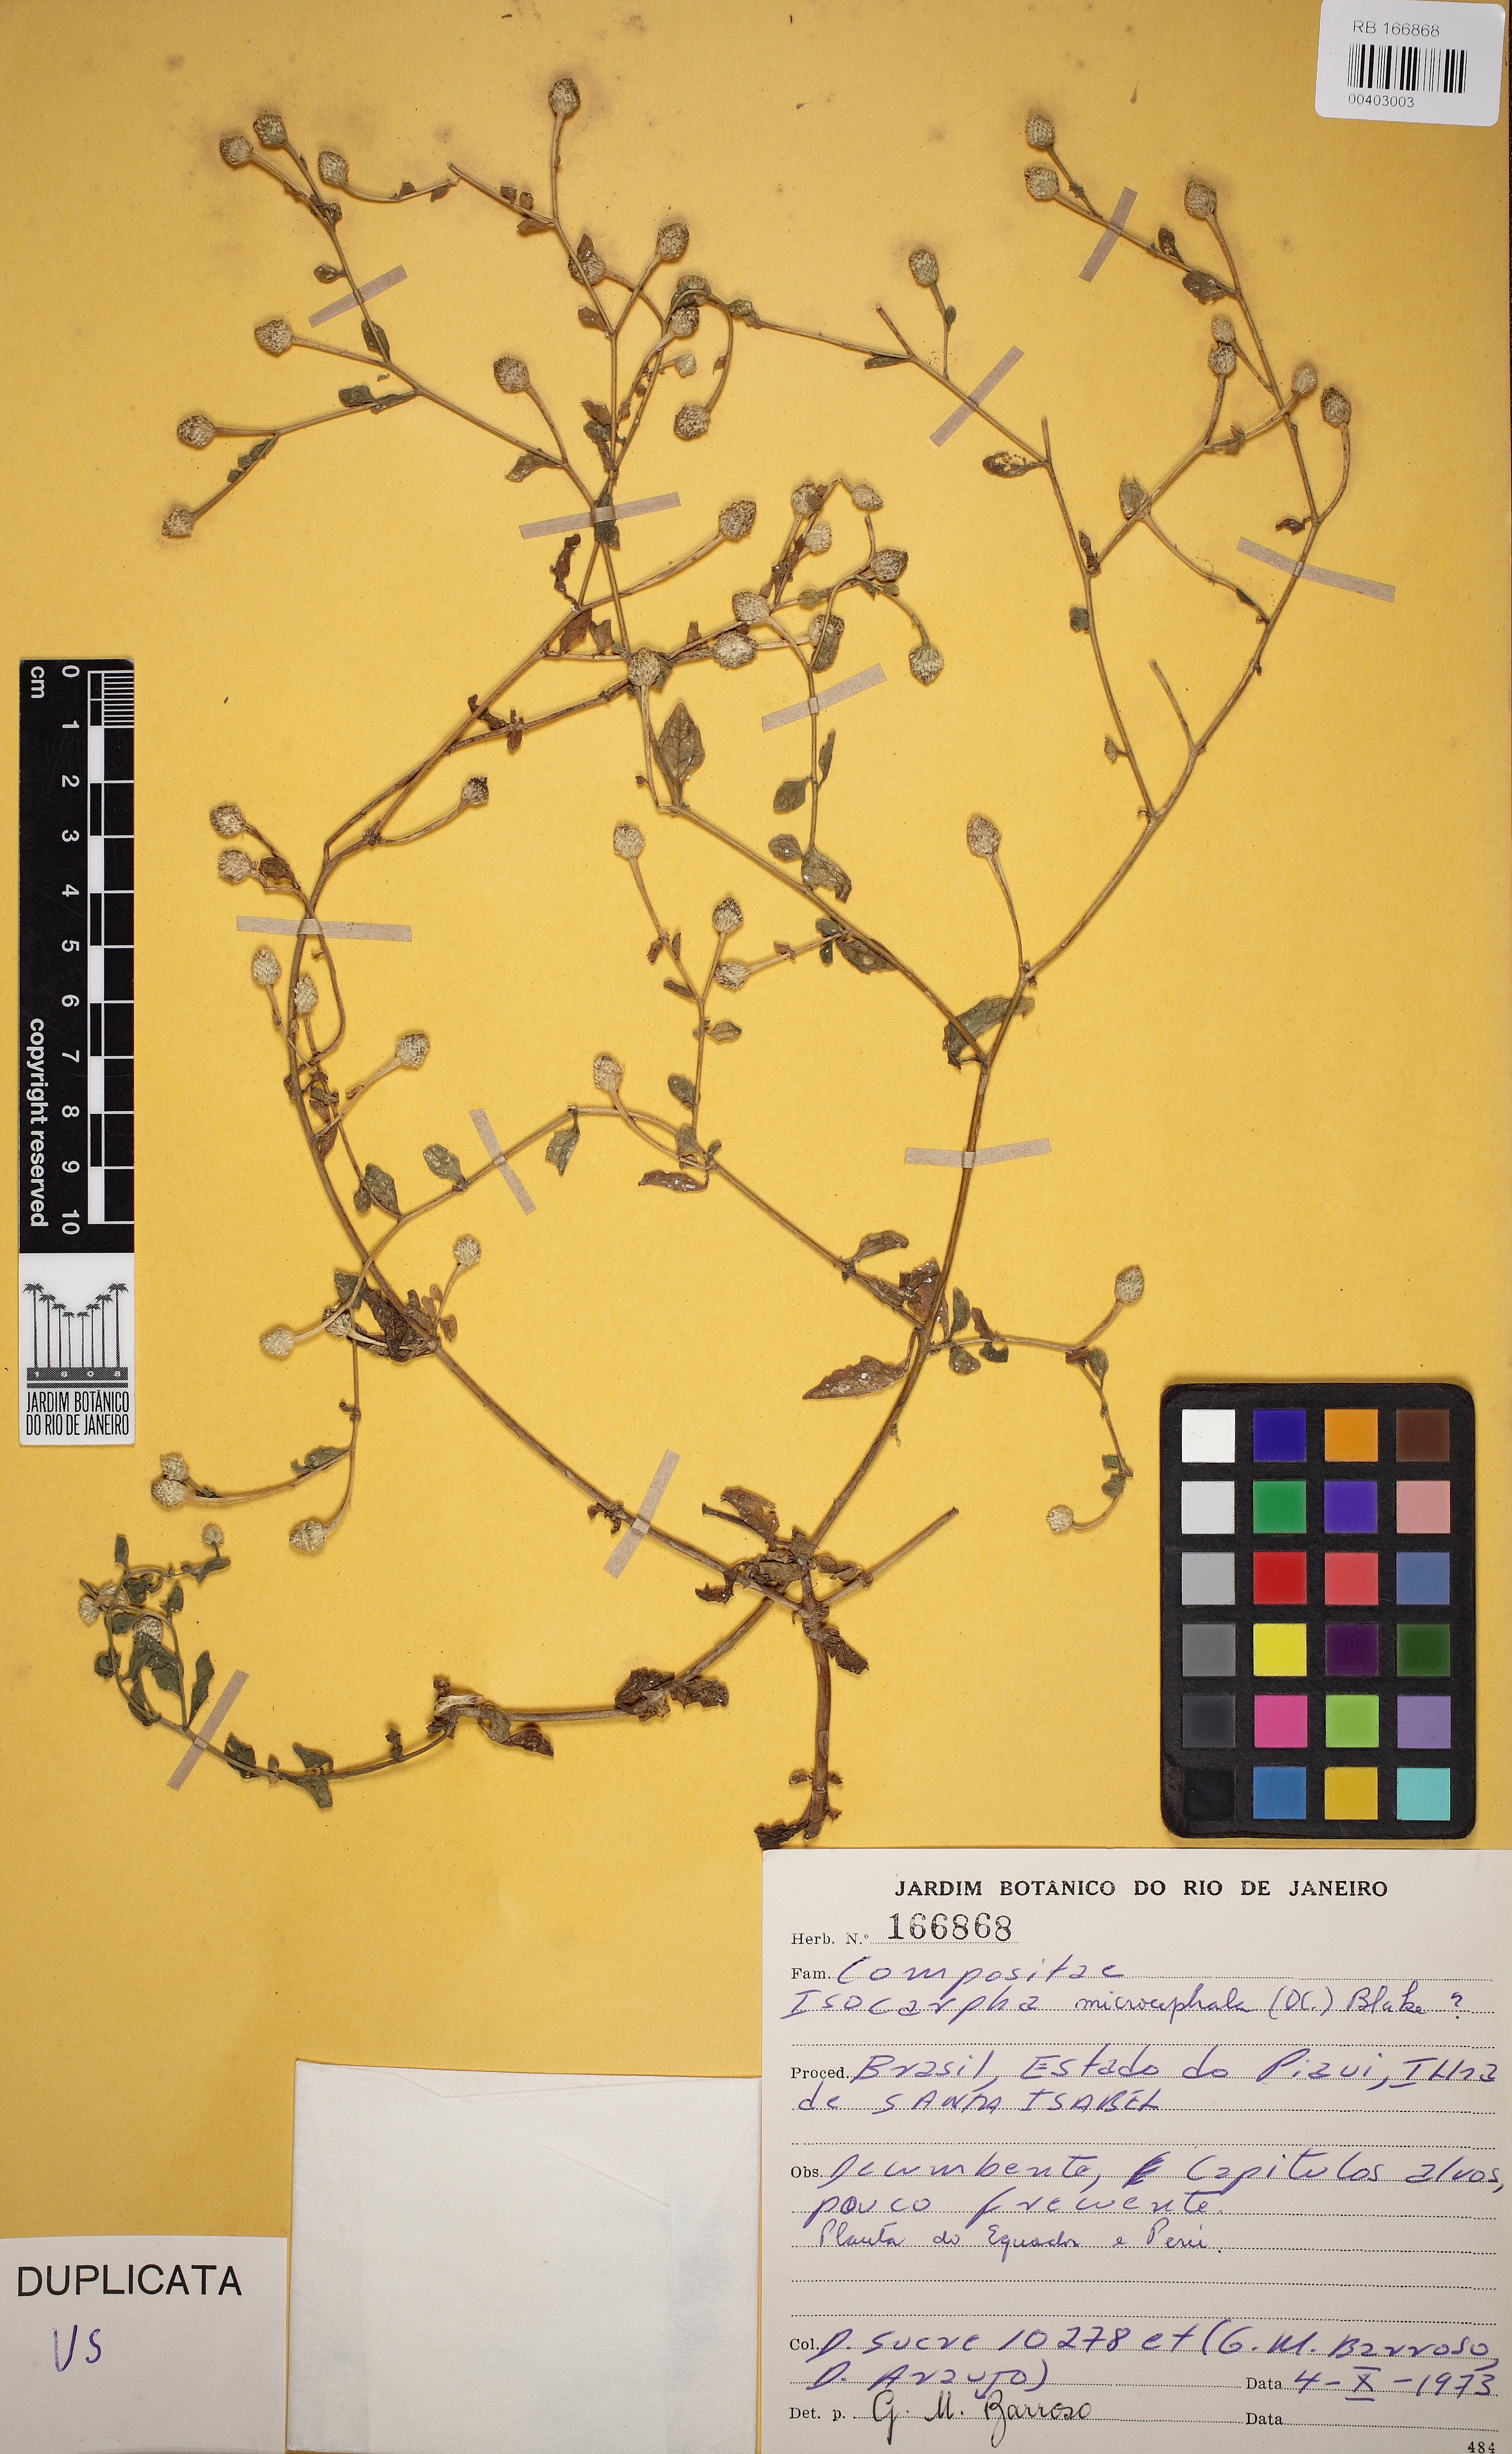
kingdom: Plantae
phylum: Tracheophyta
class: Magnoliopsida
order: Asterales
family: Asteraceae
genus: Isocarpha
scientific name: Isocarpha microcephala
